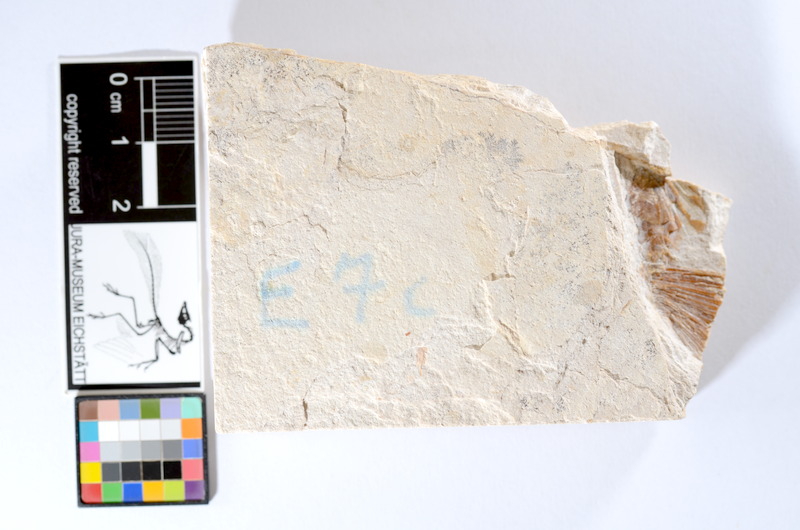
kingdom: Animalia
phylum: Chordata
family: Ascalaboidae
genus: Tharsis
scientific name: Tharsis dubius
